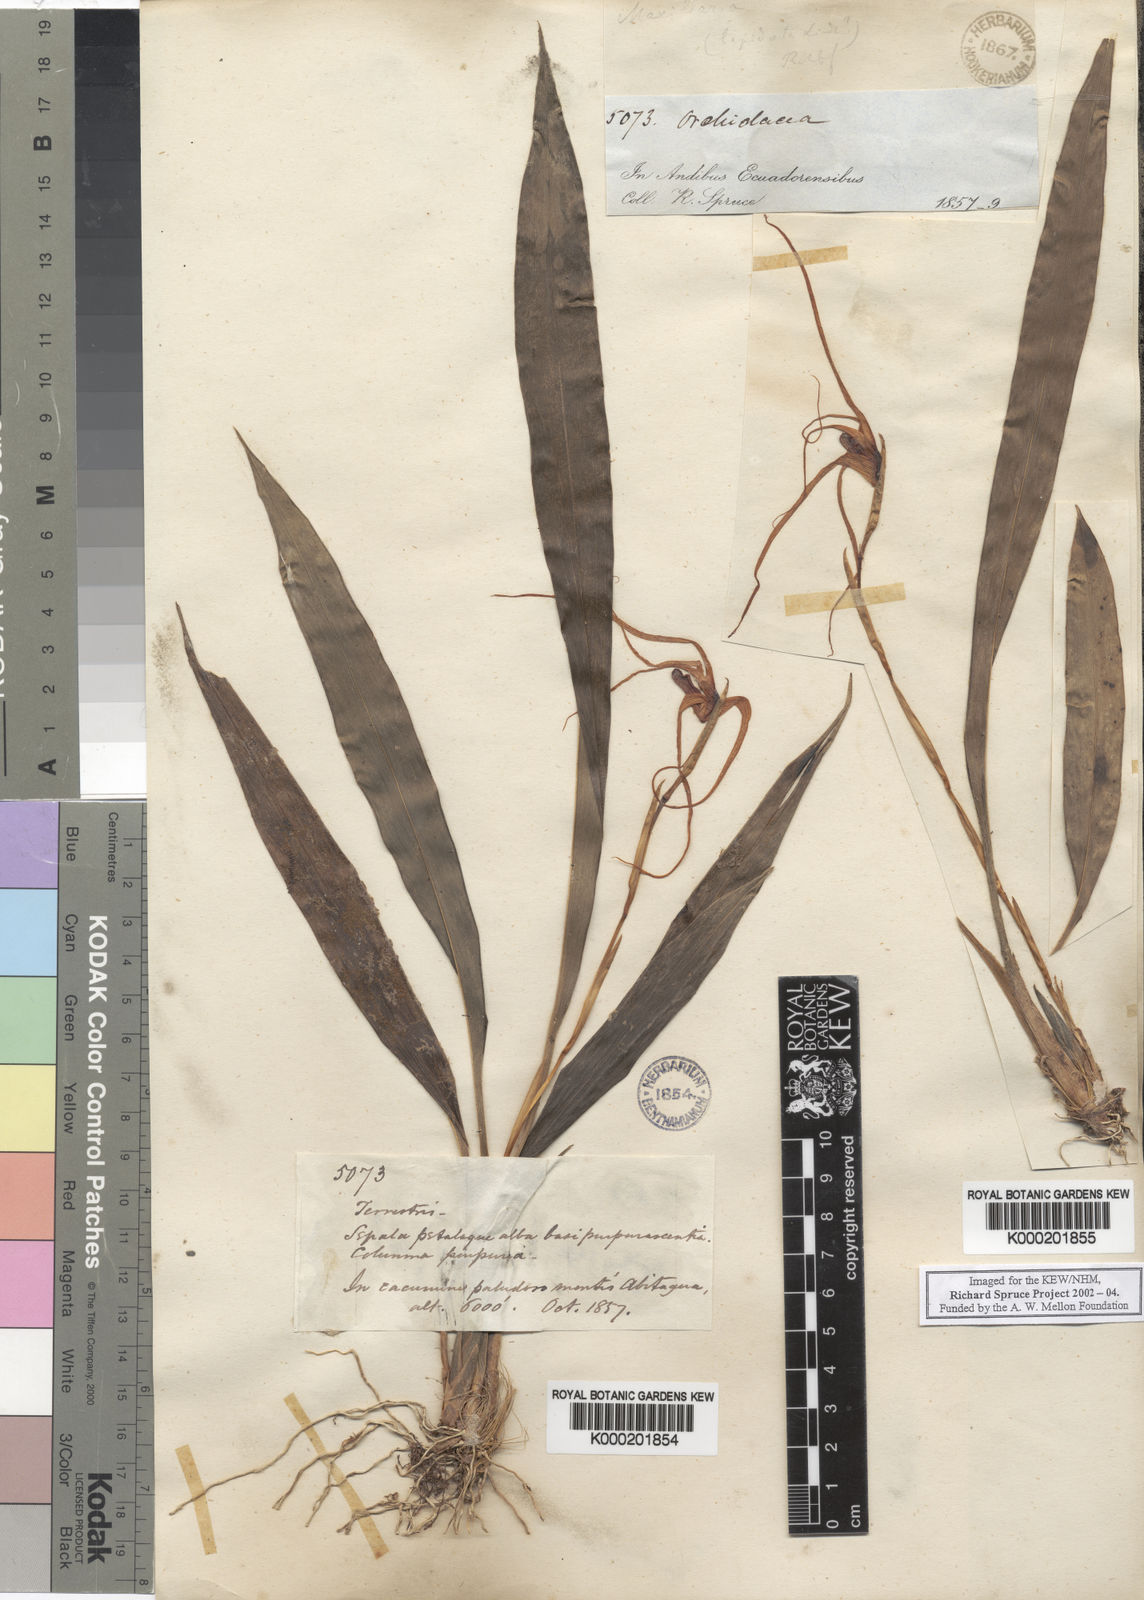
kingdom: Plantae
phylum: Tracheophyta
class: Liliopsida
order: Asparagales
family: Orchidaceae
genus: Maxillaria
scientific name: Maxillaria ecuadorensis
